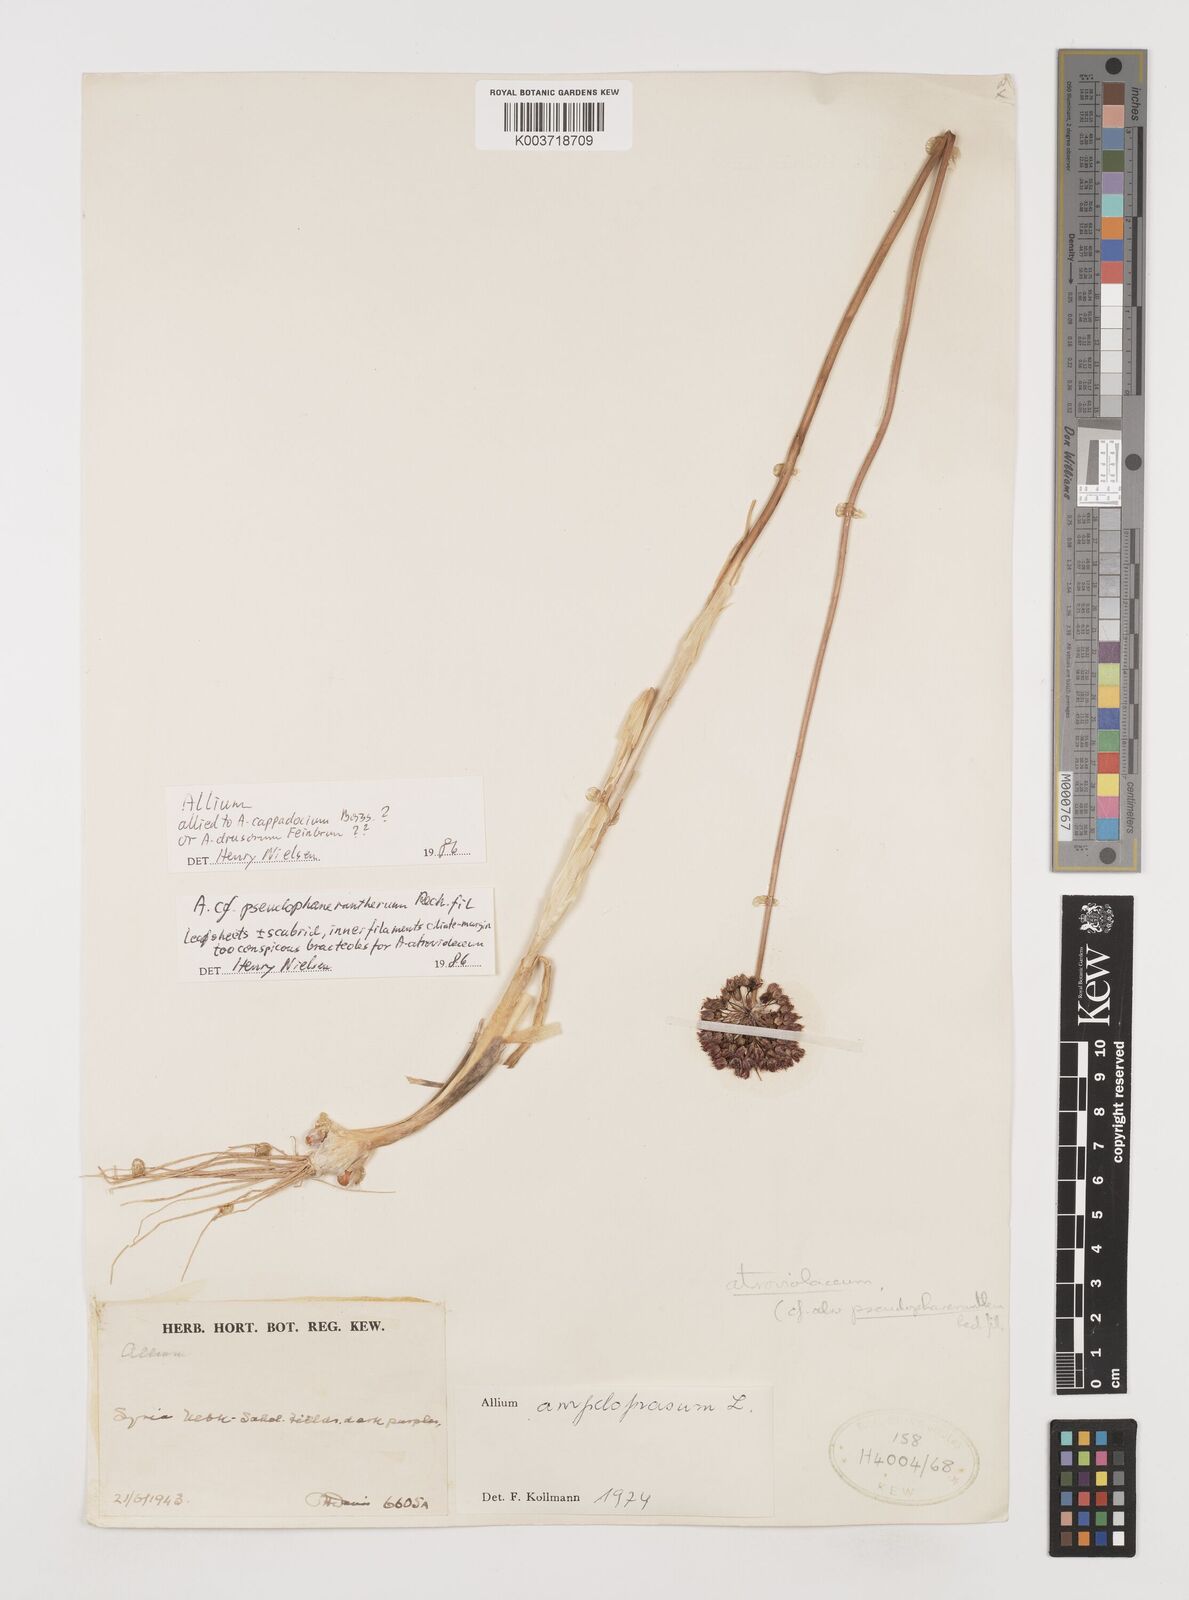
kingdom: Plantae
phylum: Tracheophyta
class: Liliopsida
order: Asparagales
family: Amaryllidaceae
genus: Allium
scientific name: Allium atroviolaceum
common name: Broadleaf wild leek
